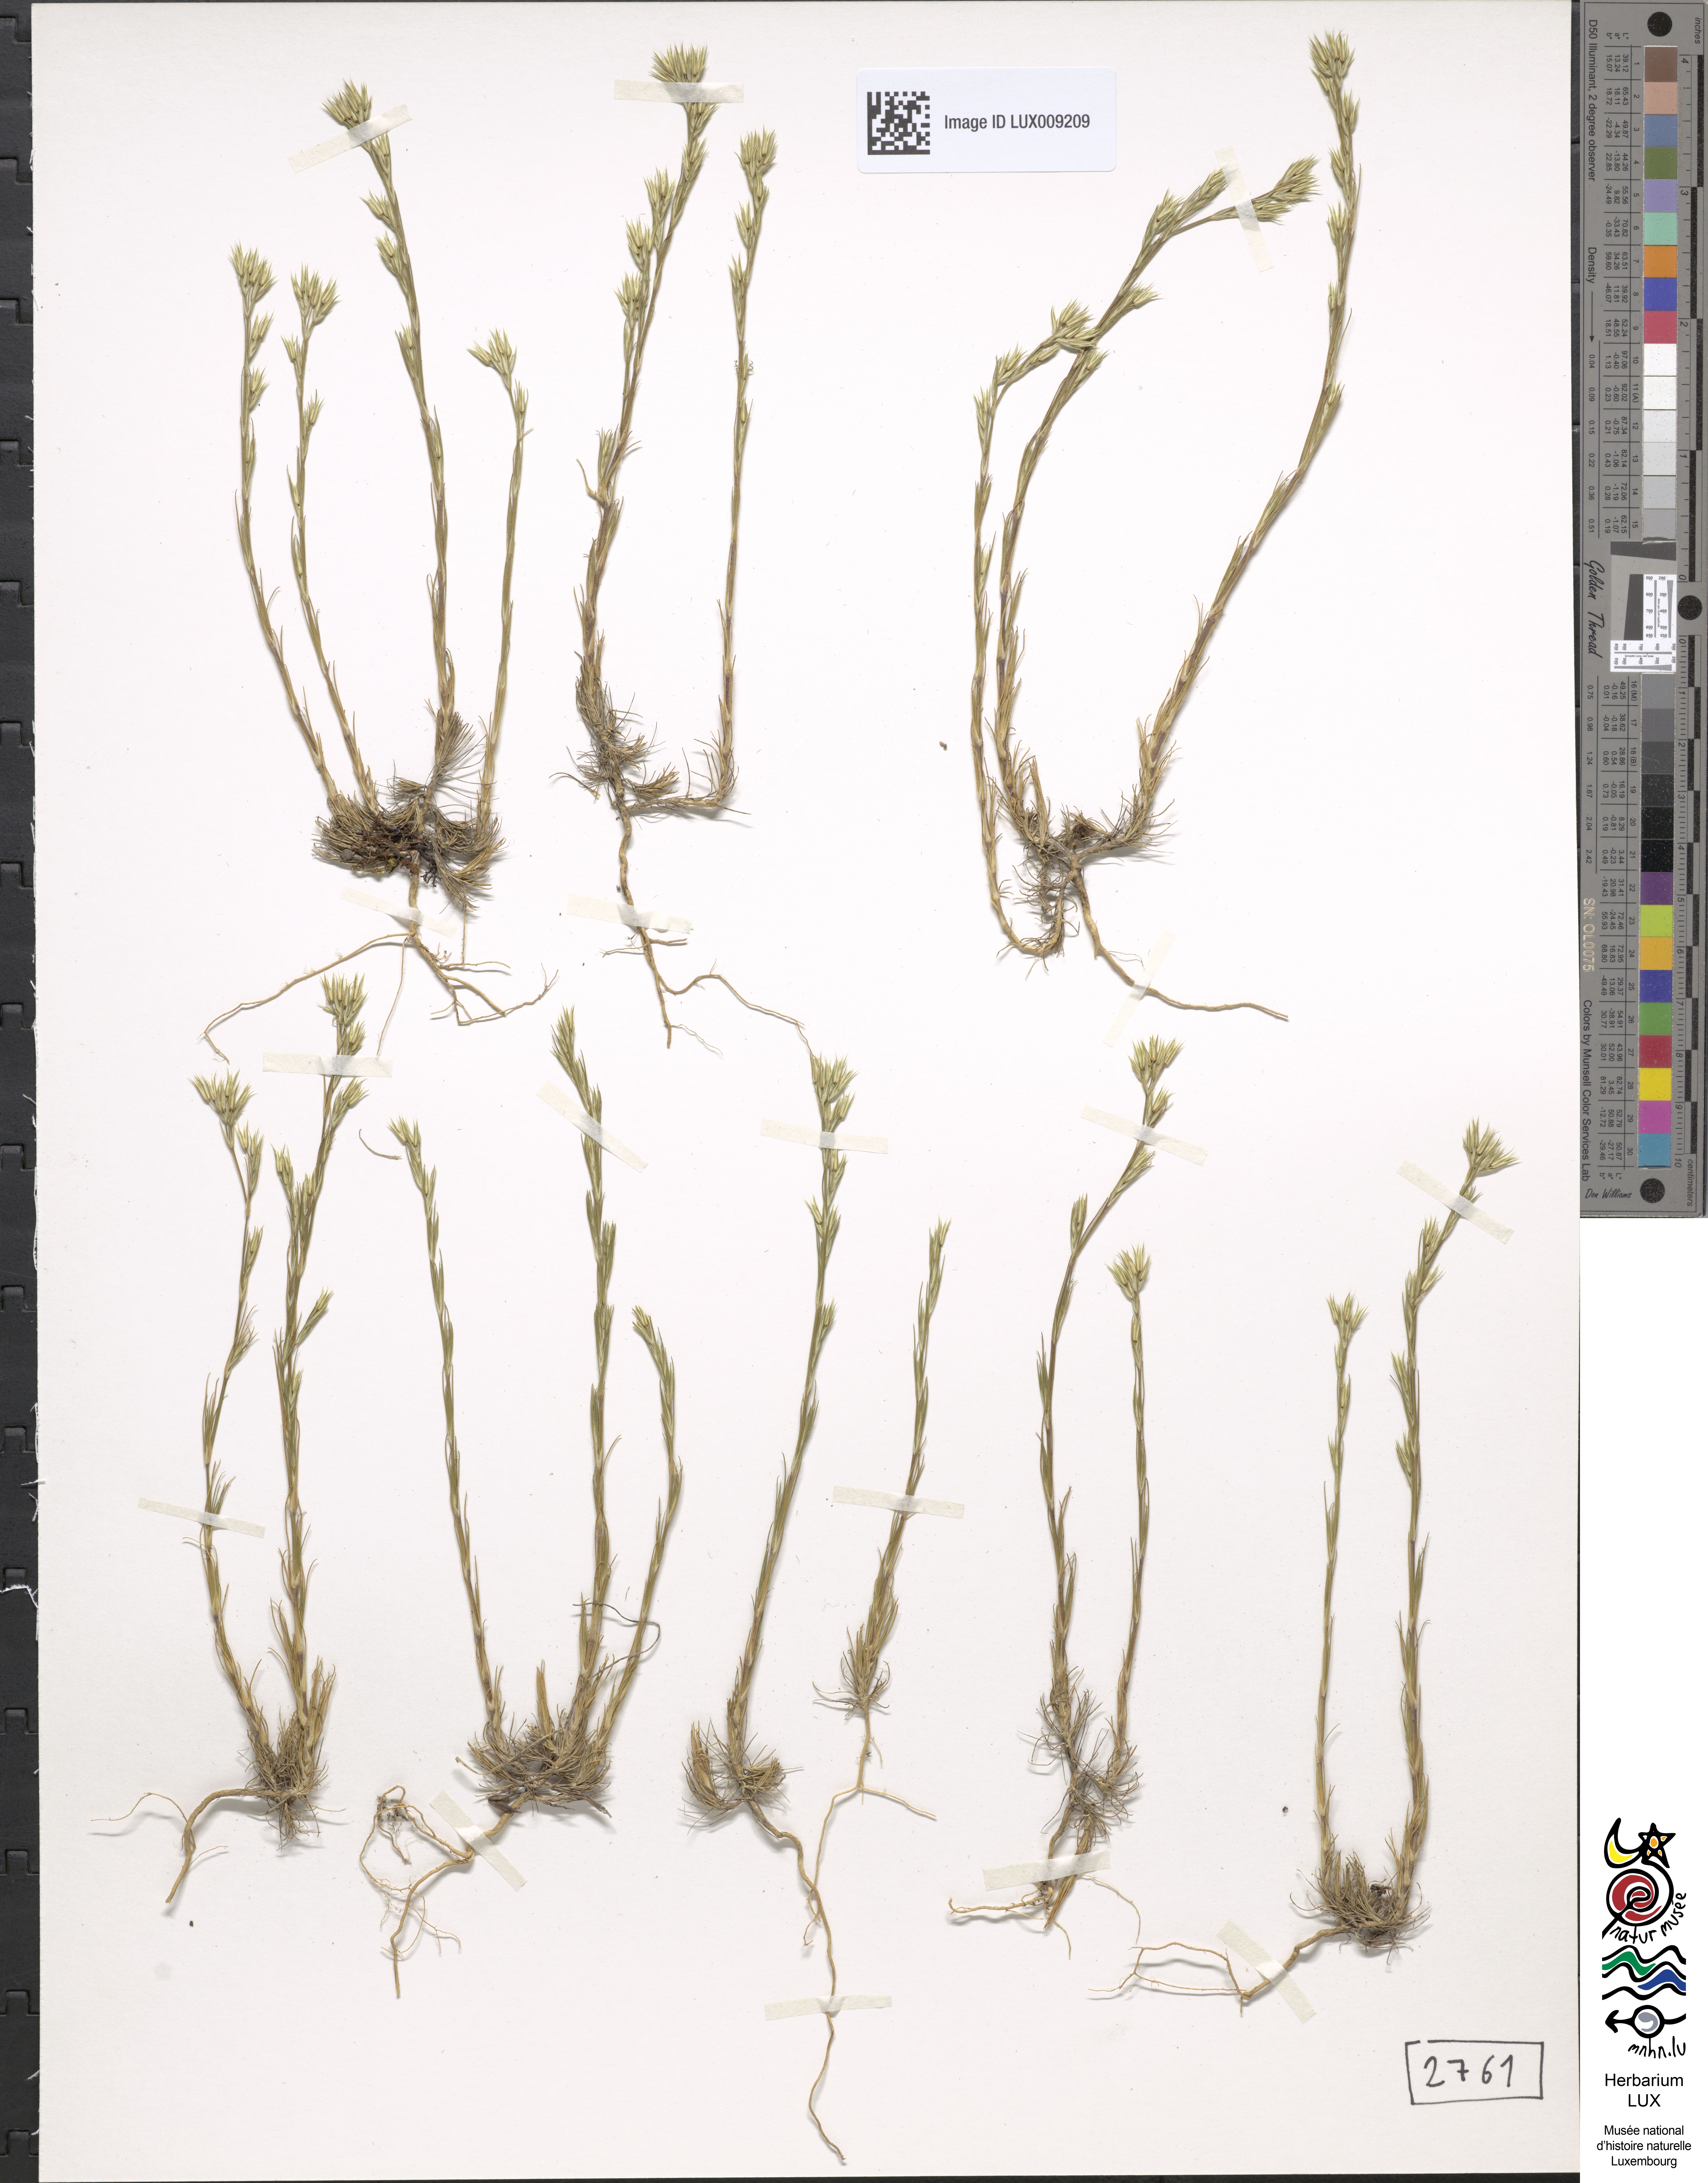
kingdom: Plantae
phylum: Tracheophyta
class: Magnoliopsida
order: Caryophyllales
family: Caryophyllaceae
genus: Minuartia
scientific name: Minuartia mucronata
